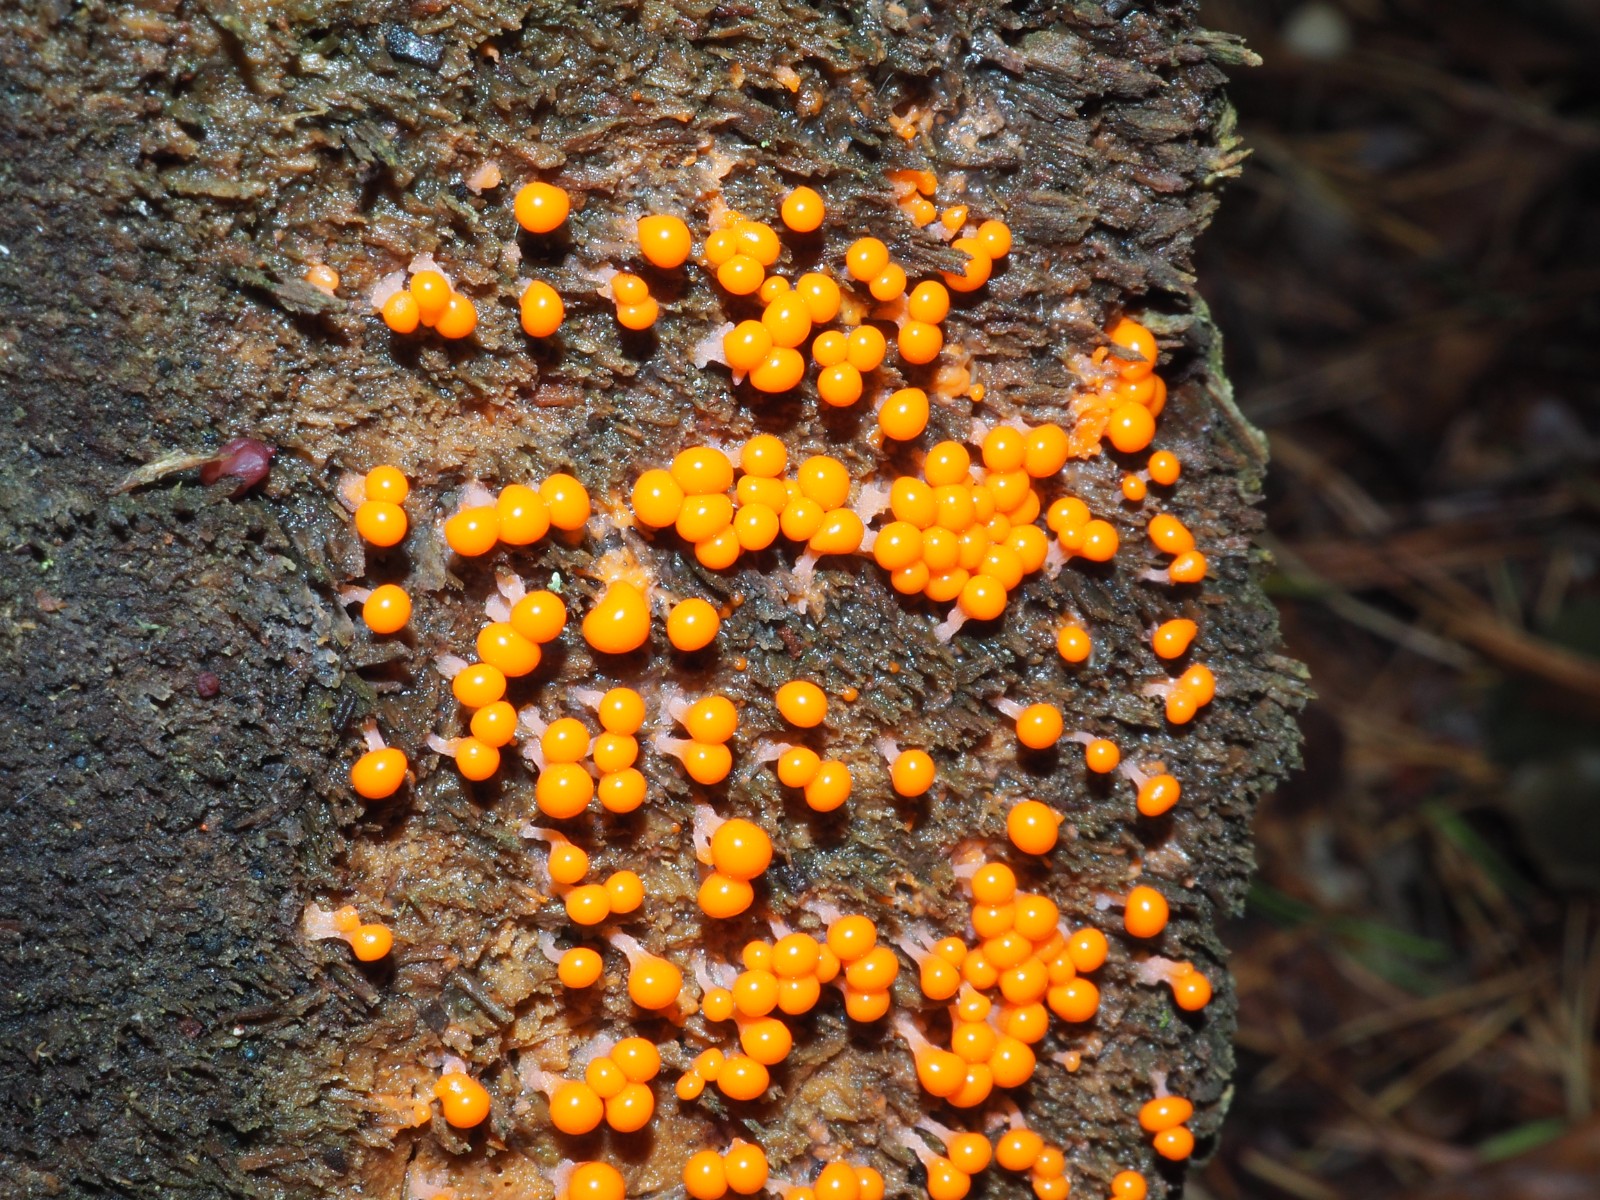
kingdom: Protozoa
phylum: Mycetozoa
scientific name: Mycetozoa
